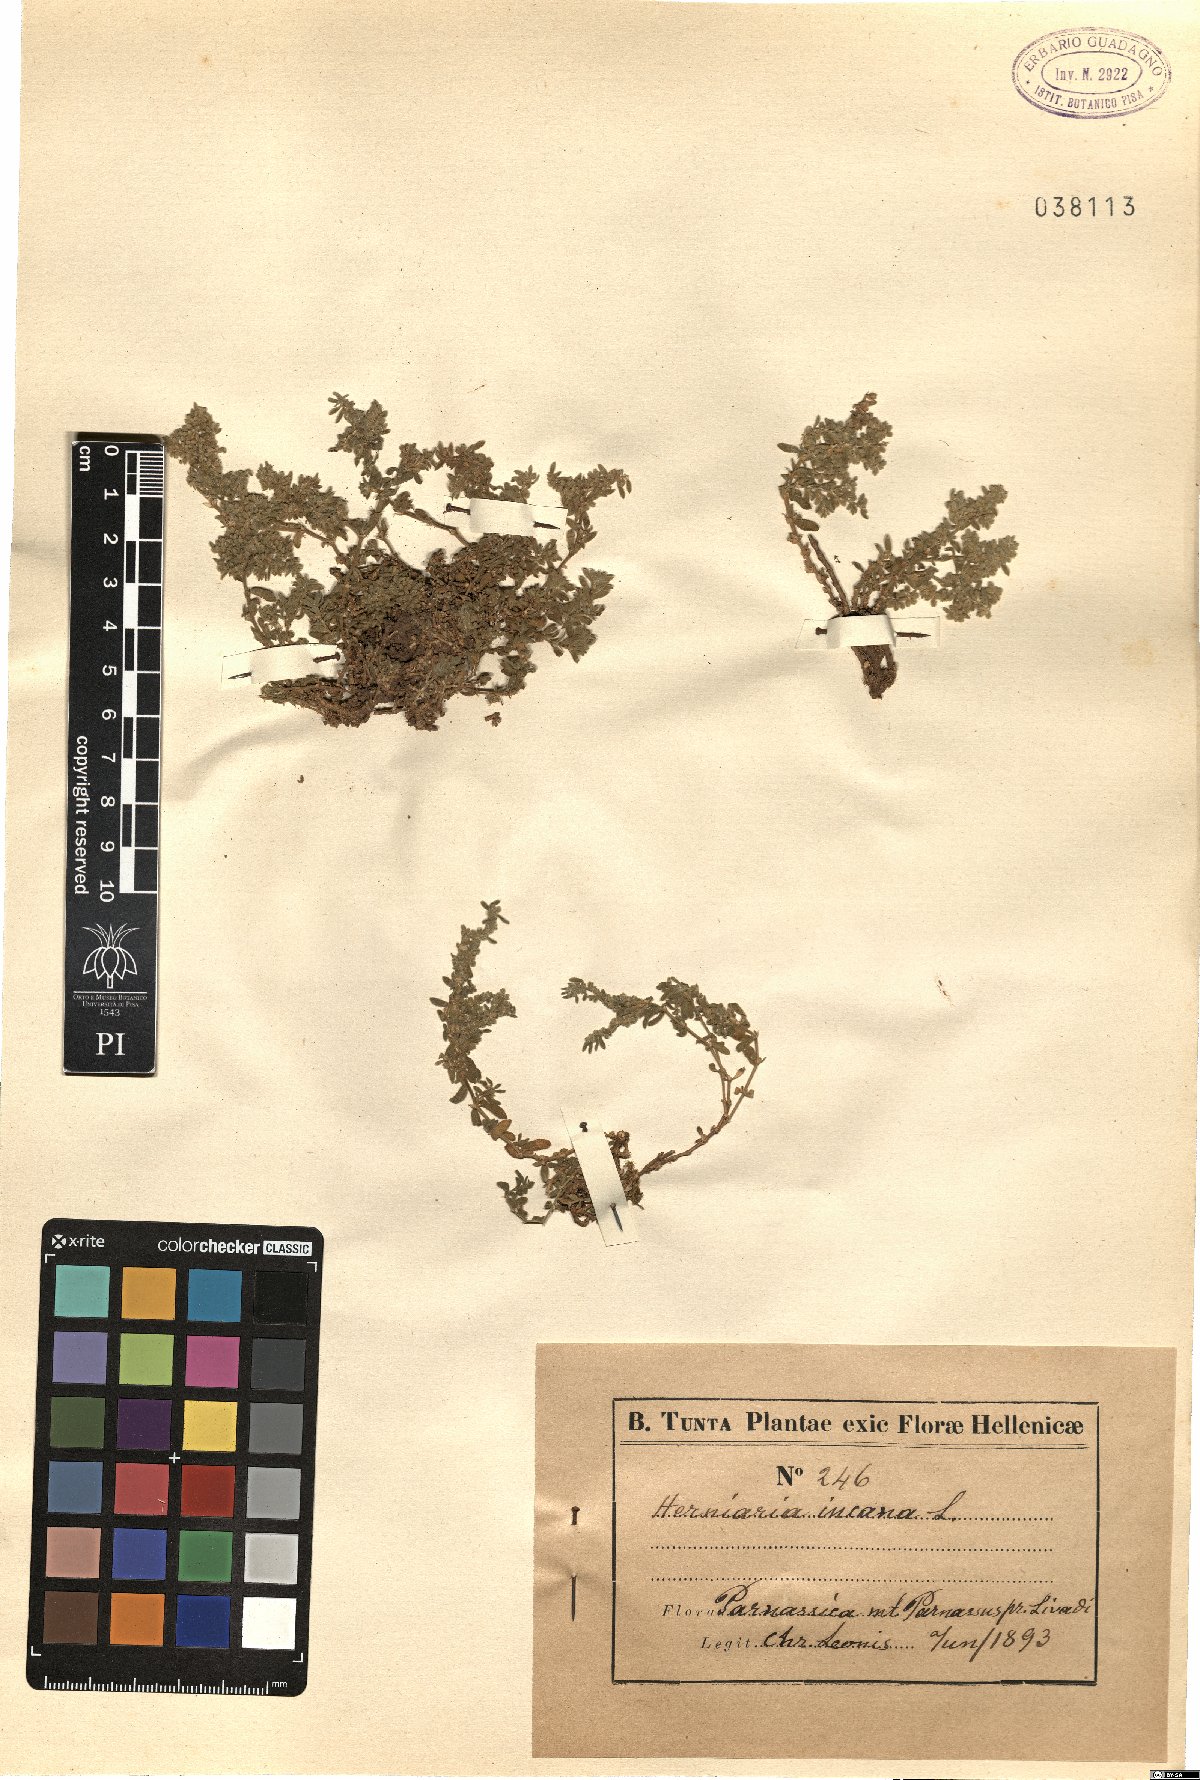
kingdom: Plantae
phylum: Tracheophyta
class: Magnoliopsida
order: Caryophyllales
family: Caryophyllaceae
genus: Herniaria
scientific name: Herniaria incana
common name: Gray rupturewort
